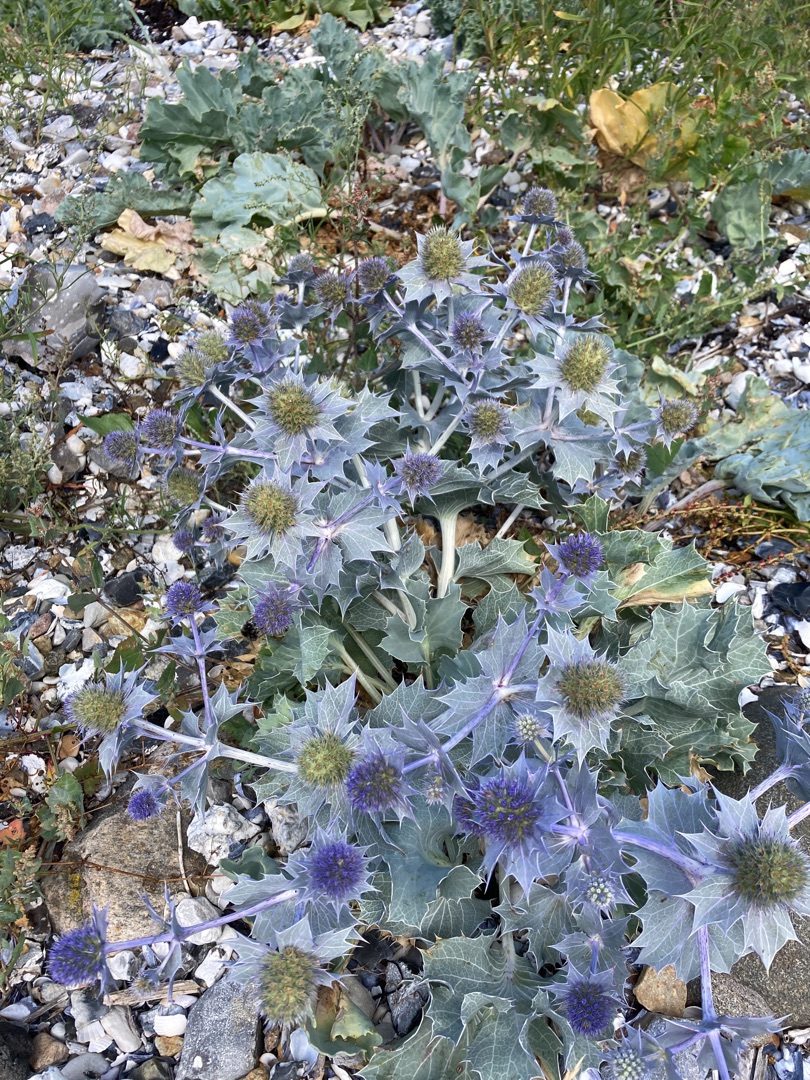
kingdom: Plantae
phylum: Tracheophyta
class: Magnoliopsida
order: Apiales
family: Apiaceae
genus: Eryngium
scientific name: Eryngium maritimum
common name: Strand-mandstro
